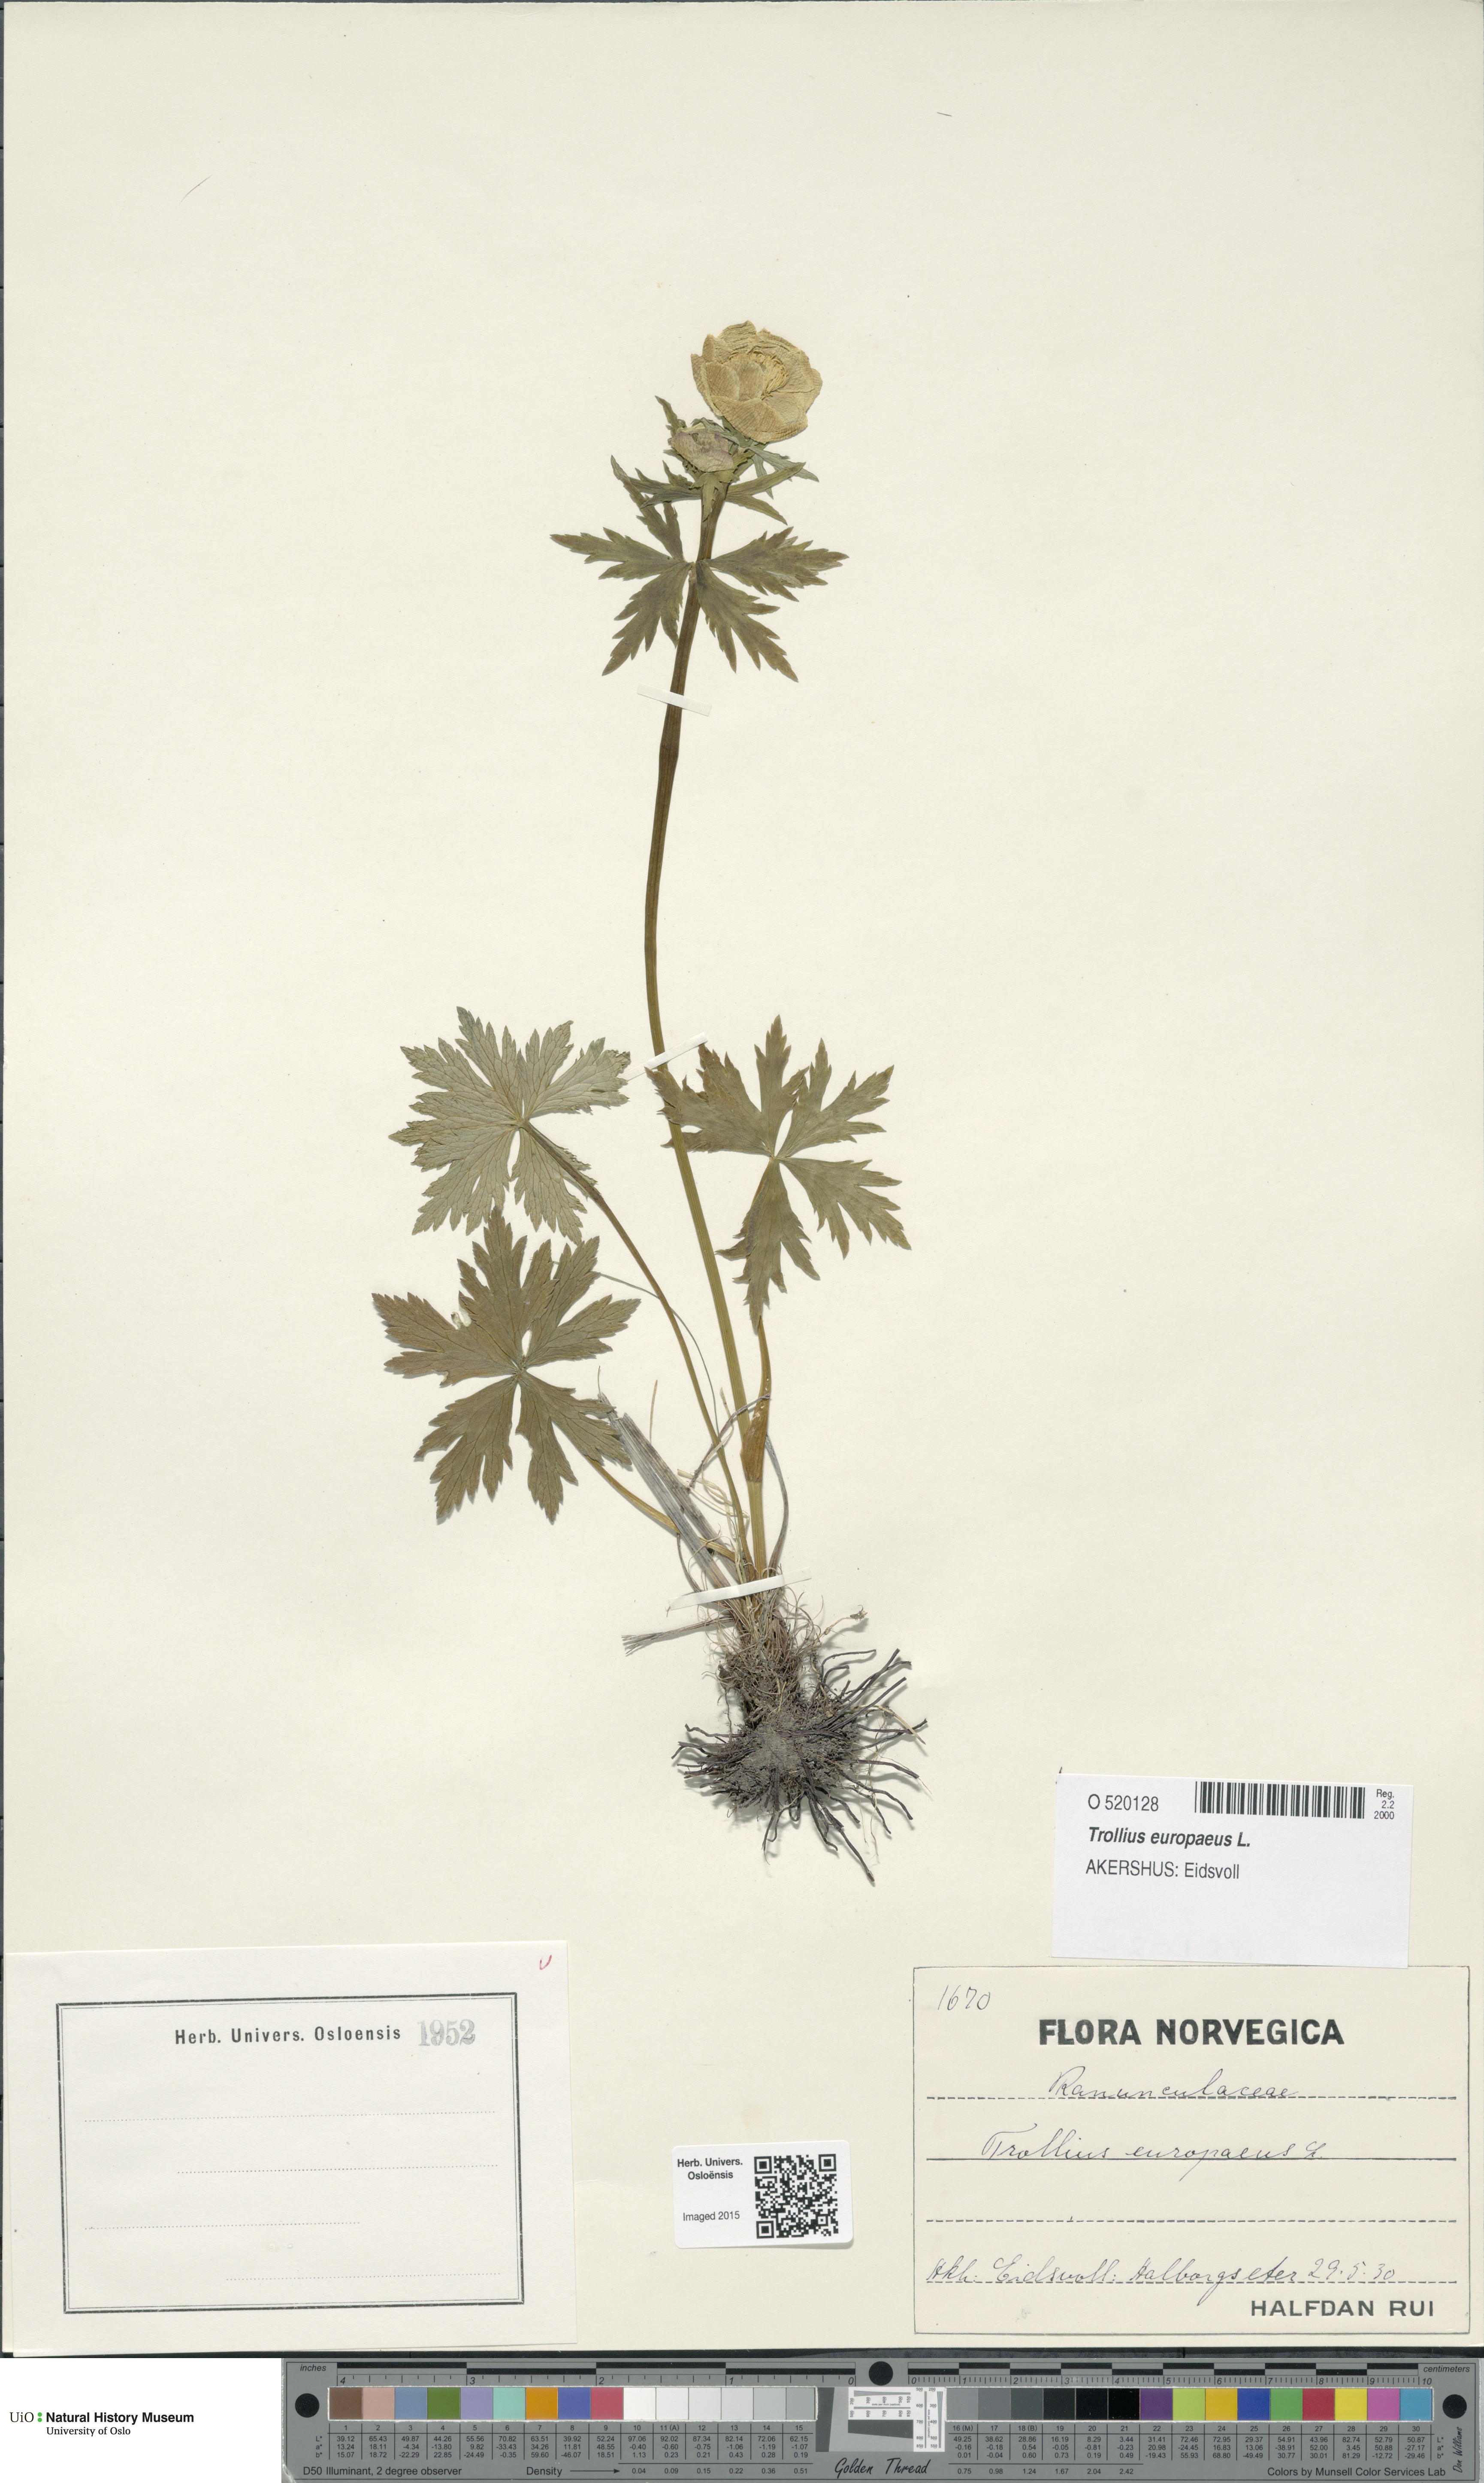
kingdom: Plantae
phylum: Tracheophyta
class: Magnoliopsida
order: Ranunculales
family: Ranunculaceae
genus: Trollius
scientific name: Trollius europaeus
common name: European globeflower
